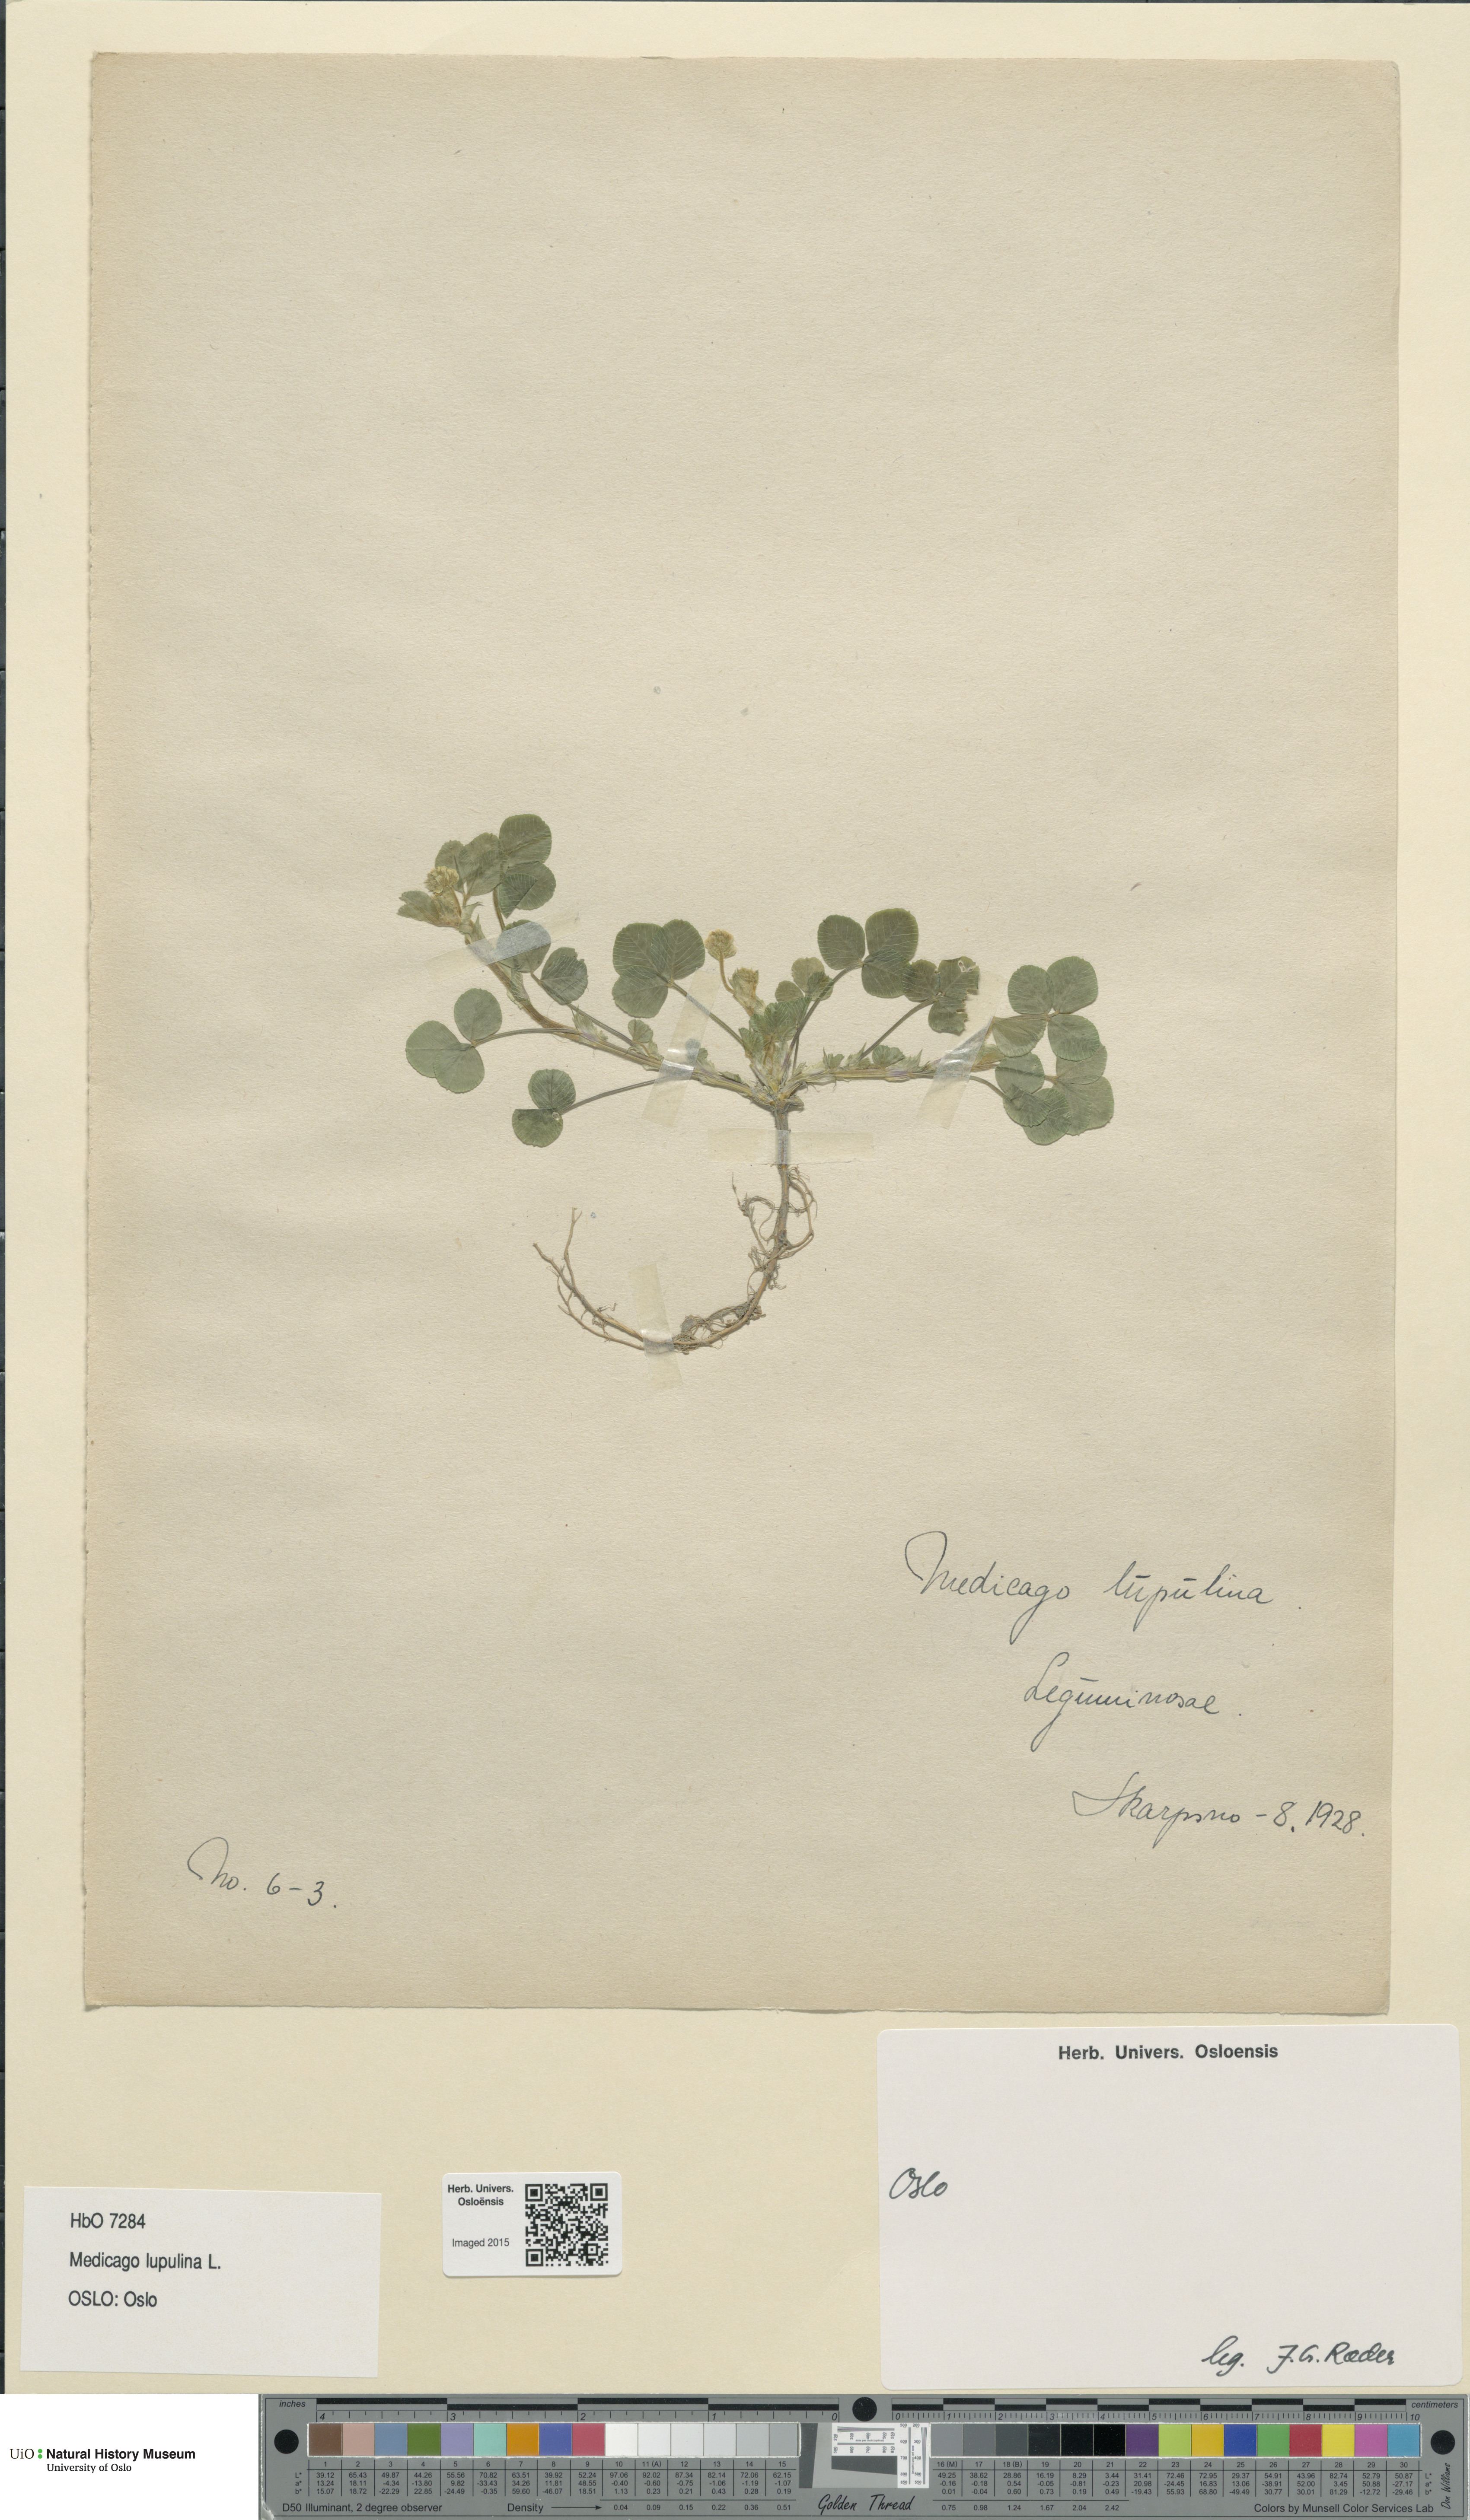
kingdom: Plantae
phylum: Tracheophyta
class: Magnoliopsida
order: Fabales
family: Fabaceae
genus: Medicago
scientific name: Medicago lupulina
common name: Black medick
